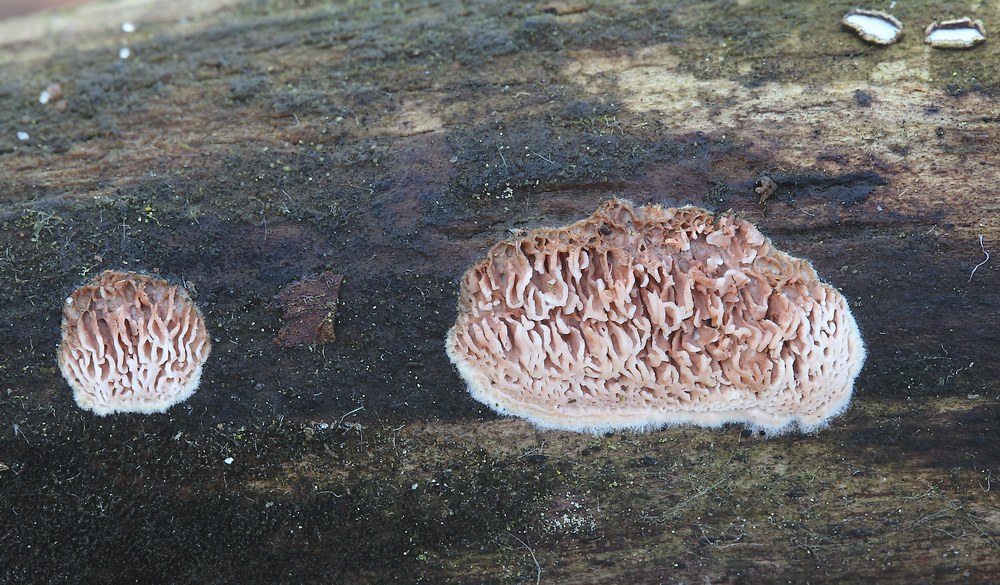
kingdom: Fungi
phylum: Basidiomycota
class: Agaricomycetes
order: Polyporales
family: Irpicaceae
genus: Ceriporia
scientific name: Ceriporia purpurea
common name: purpur-voksporesvamp
